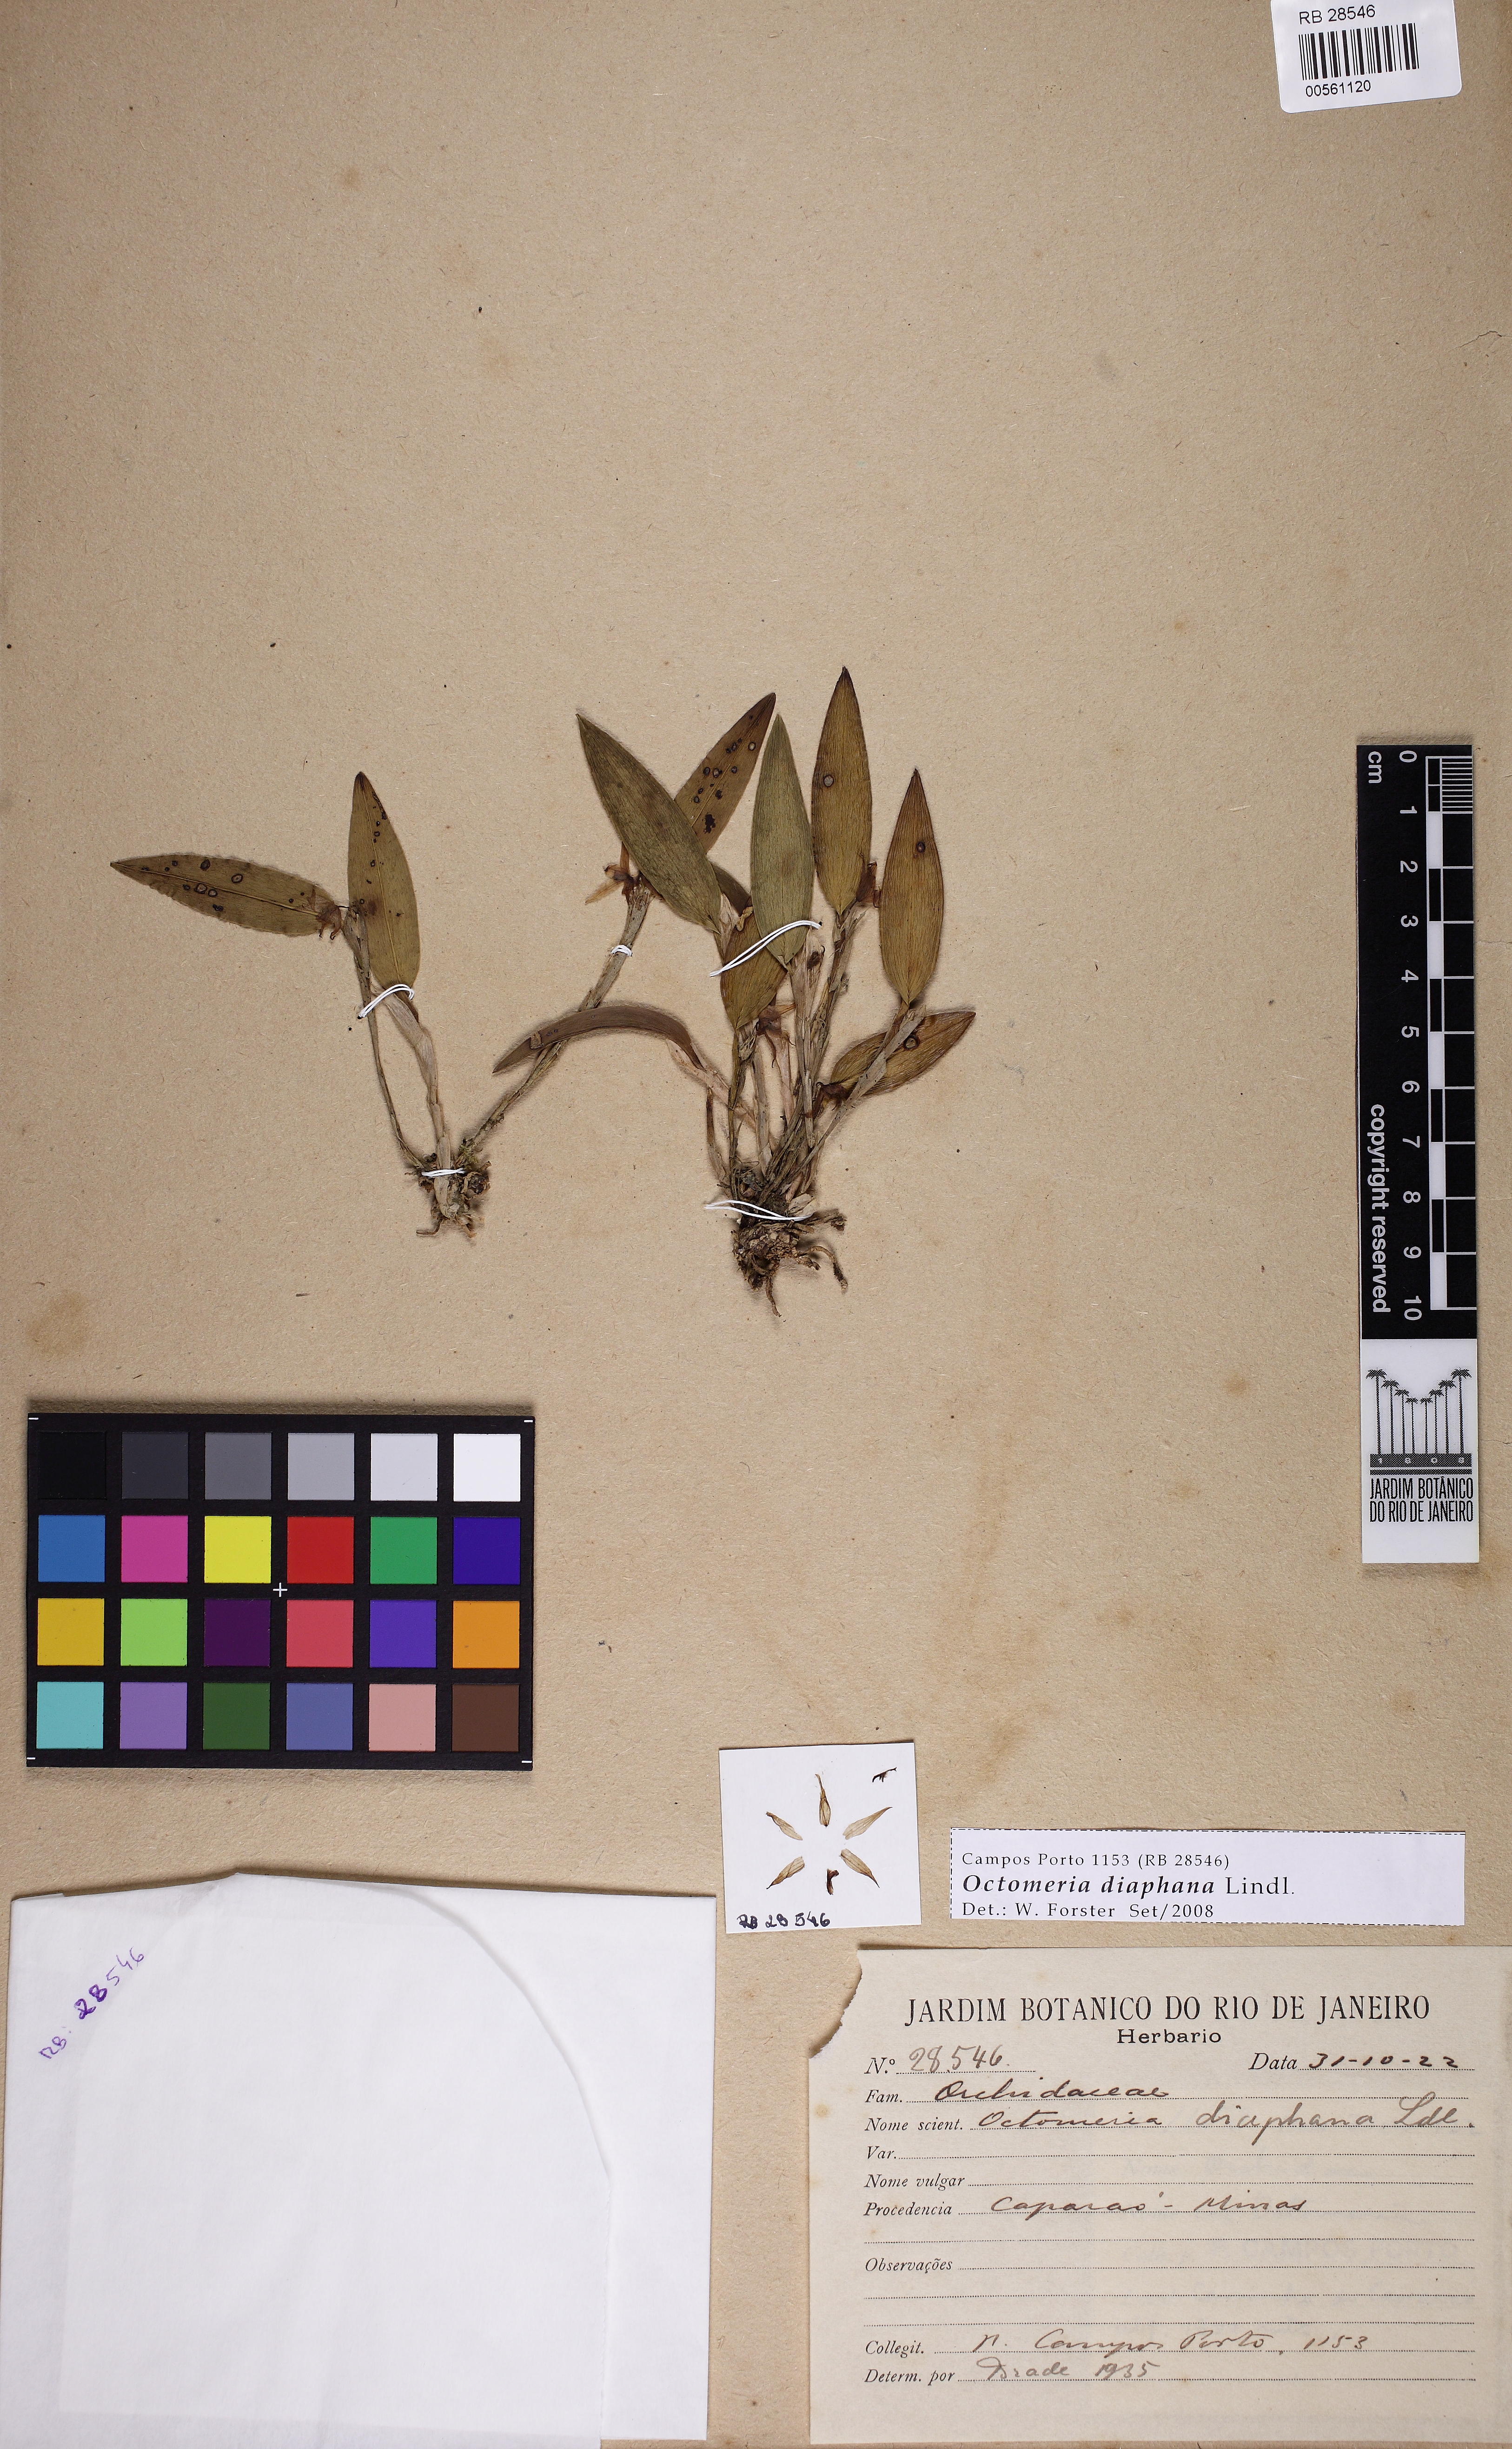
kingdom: Plantae
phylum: Tracheophyta
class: Liliopsida
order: Asparagales
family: Orchidaceae
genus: Octomeria
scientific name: Octomeria diaphana
